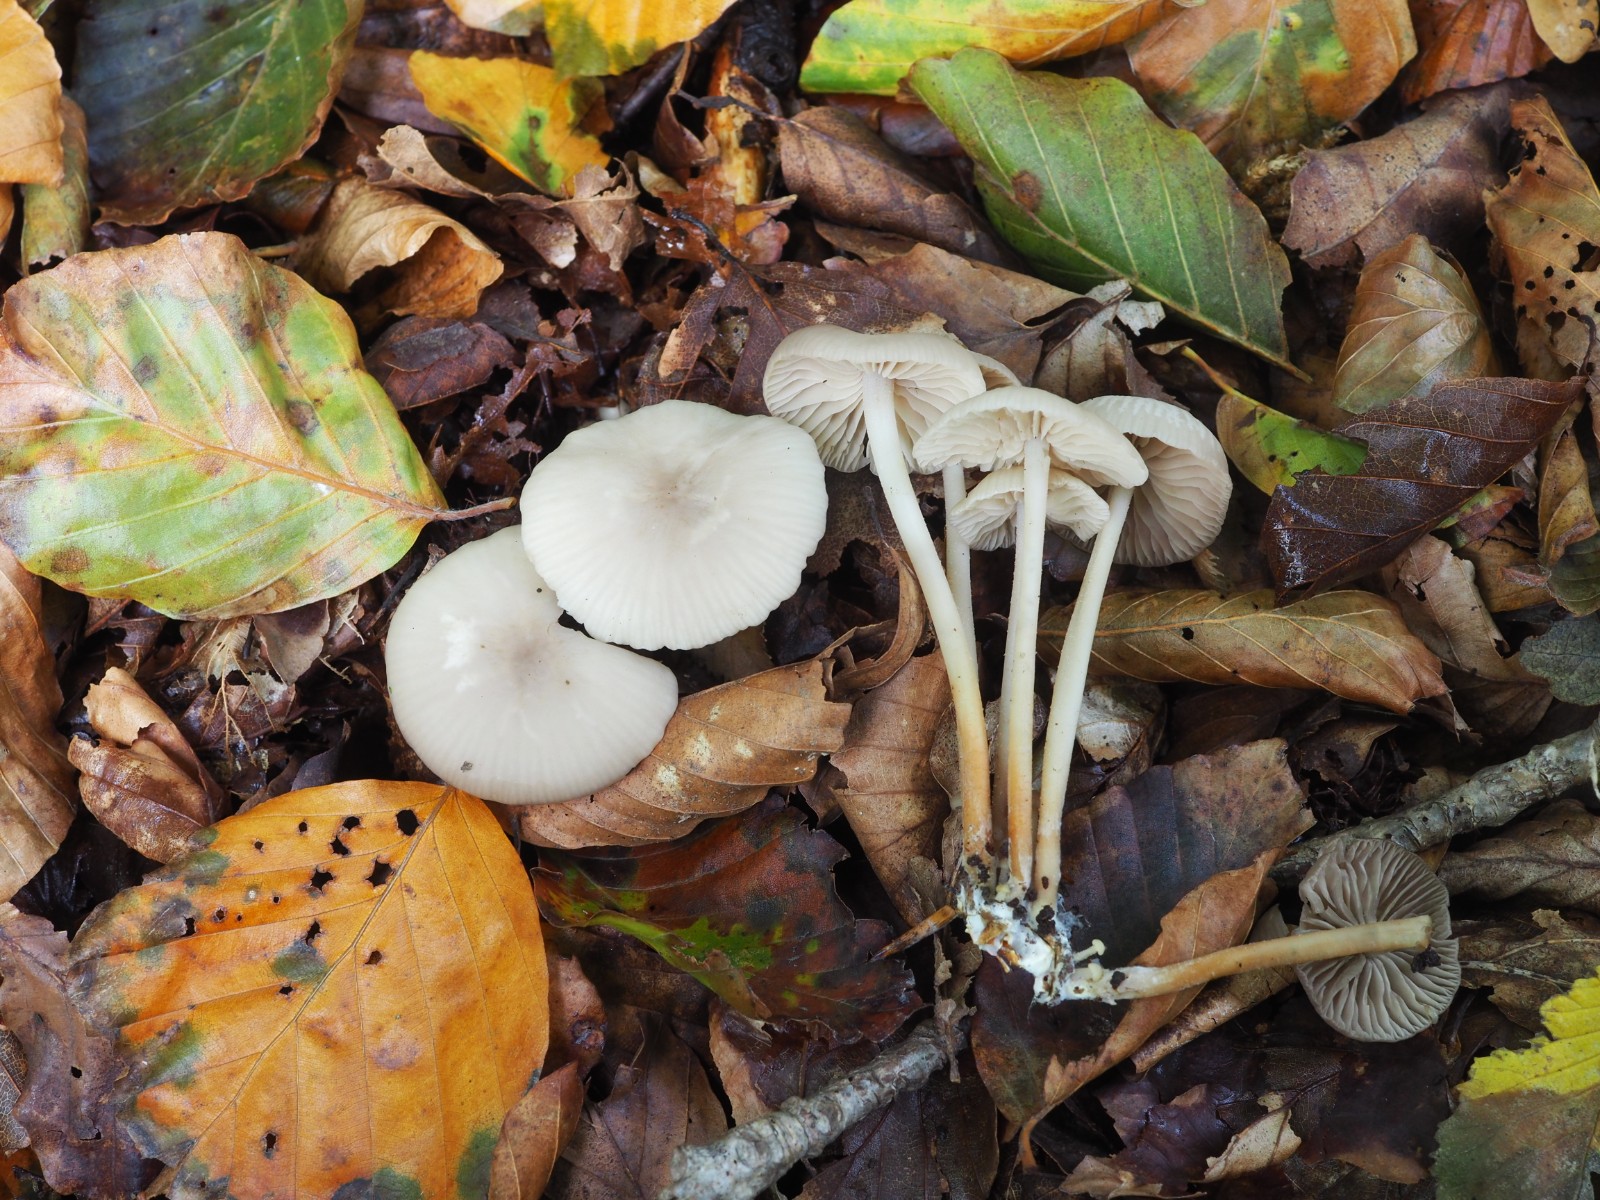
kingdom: Fungi
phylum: Basidiomycota
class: Agaricomycetes
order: Agaricales
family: Marasmiaceae
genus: Marasmius
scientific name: Marasmius wynneae
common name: hvælvet bruskhat
